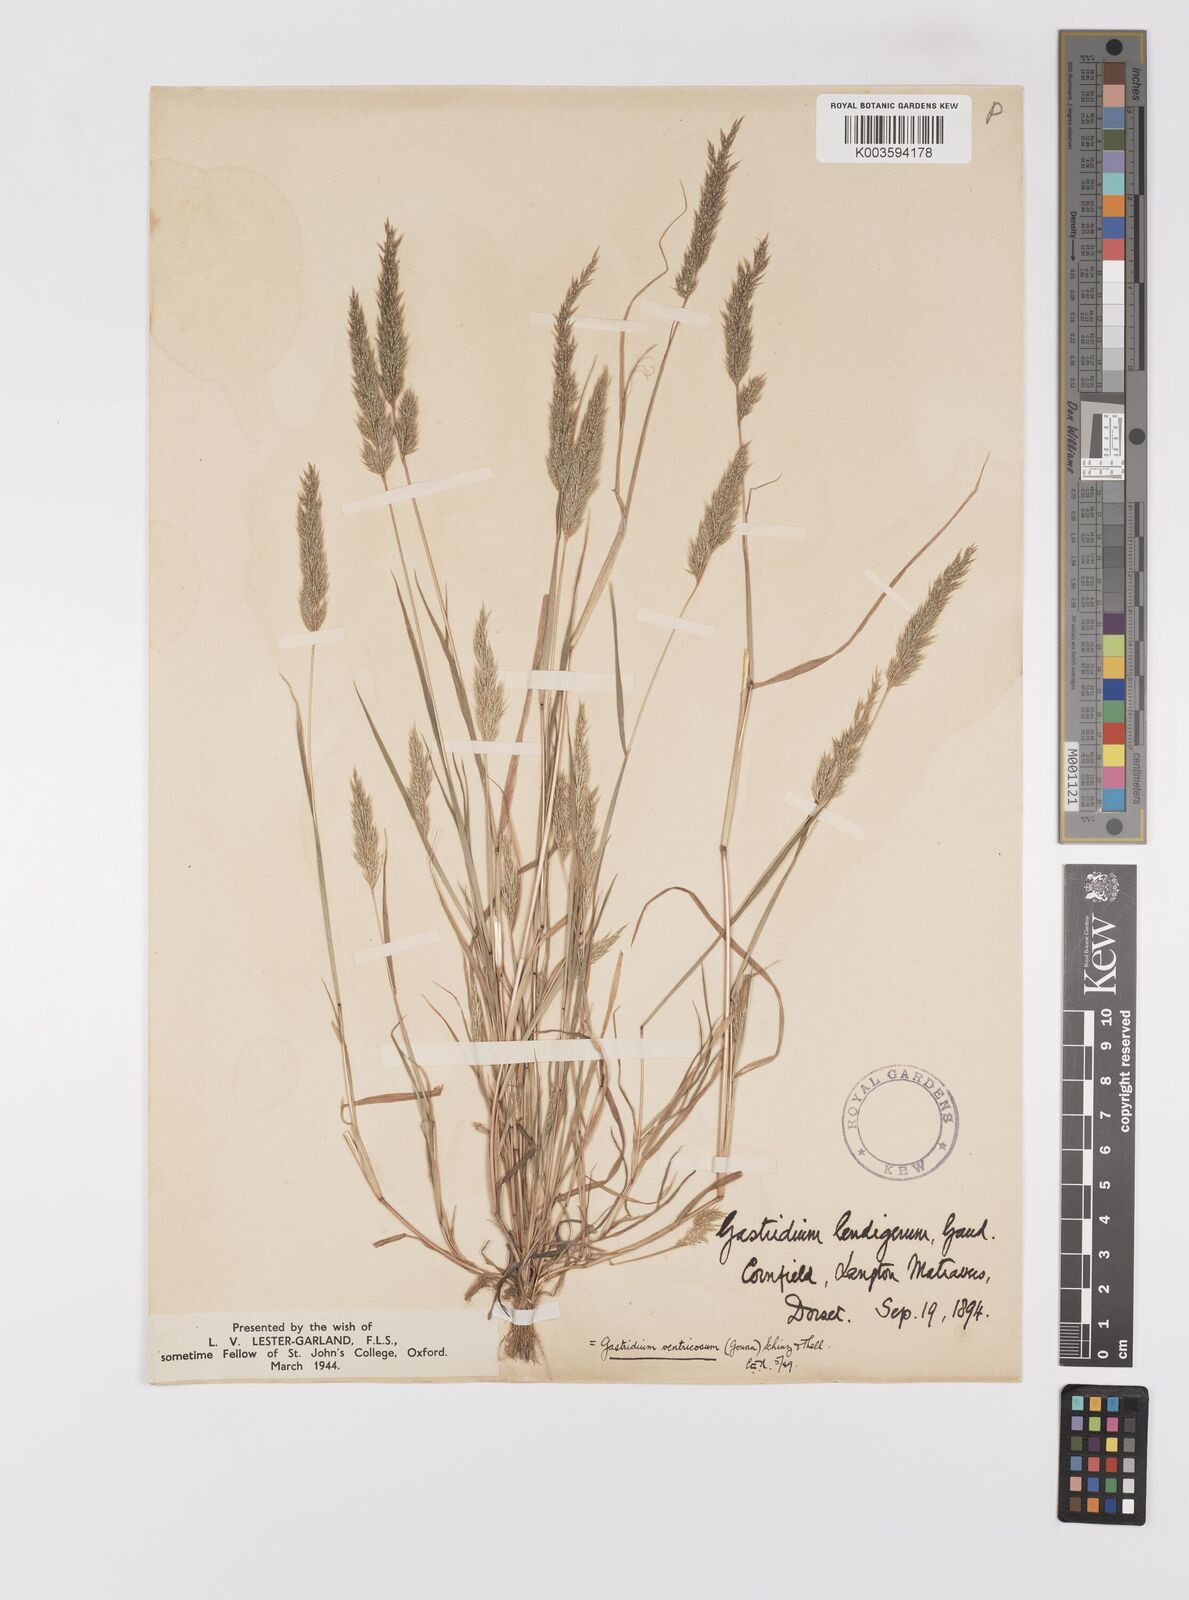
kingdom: Plantae
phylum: Tracheophyta
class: Liliopsida
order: Poales
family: Poaceae
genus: Gastridium
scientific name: Gastridium ventricosum
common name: Nit-grass
